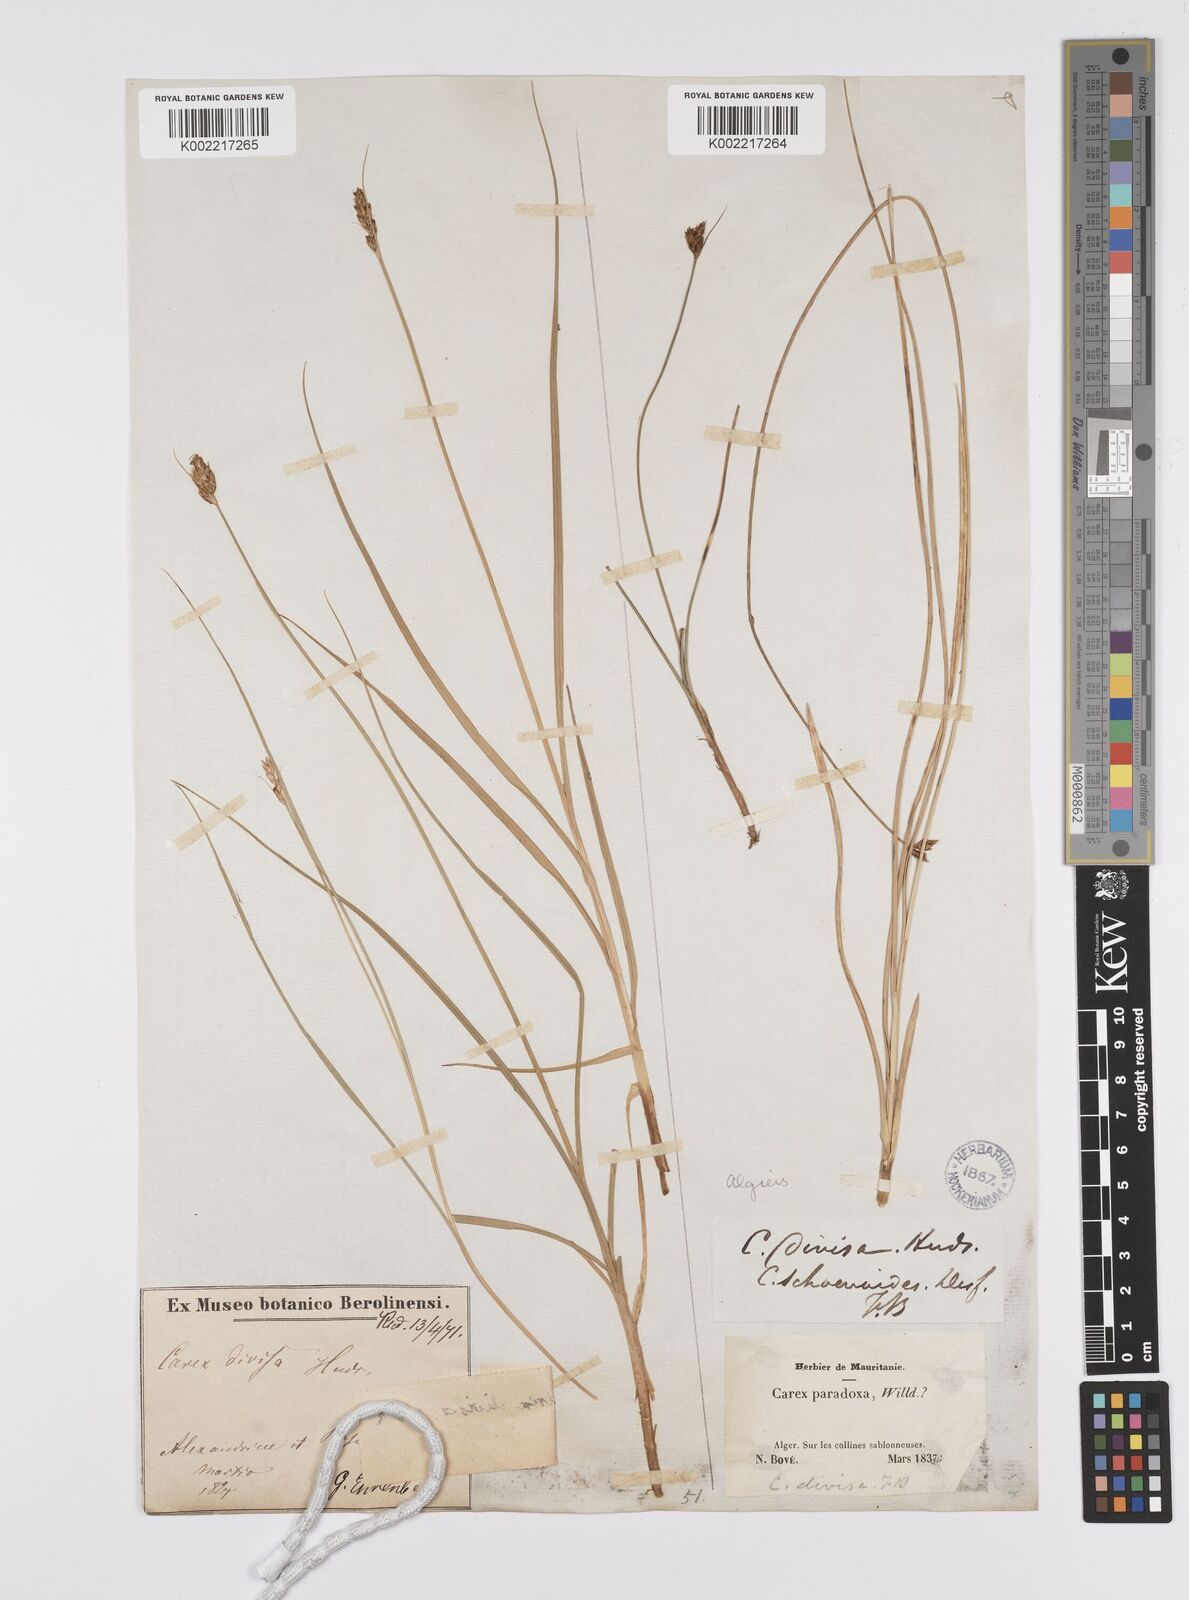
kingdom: Plantae
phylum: Tracheophyta
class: Liliopsida
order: Poales
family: Cyperaceae
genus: Carex
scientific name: Carex divisa
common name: Divided sedge
